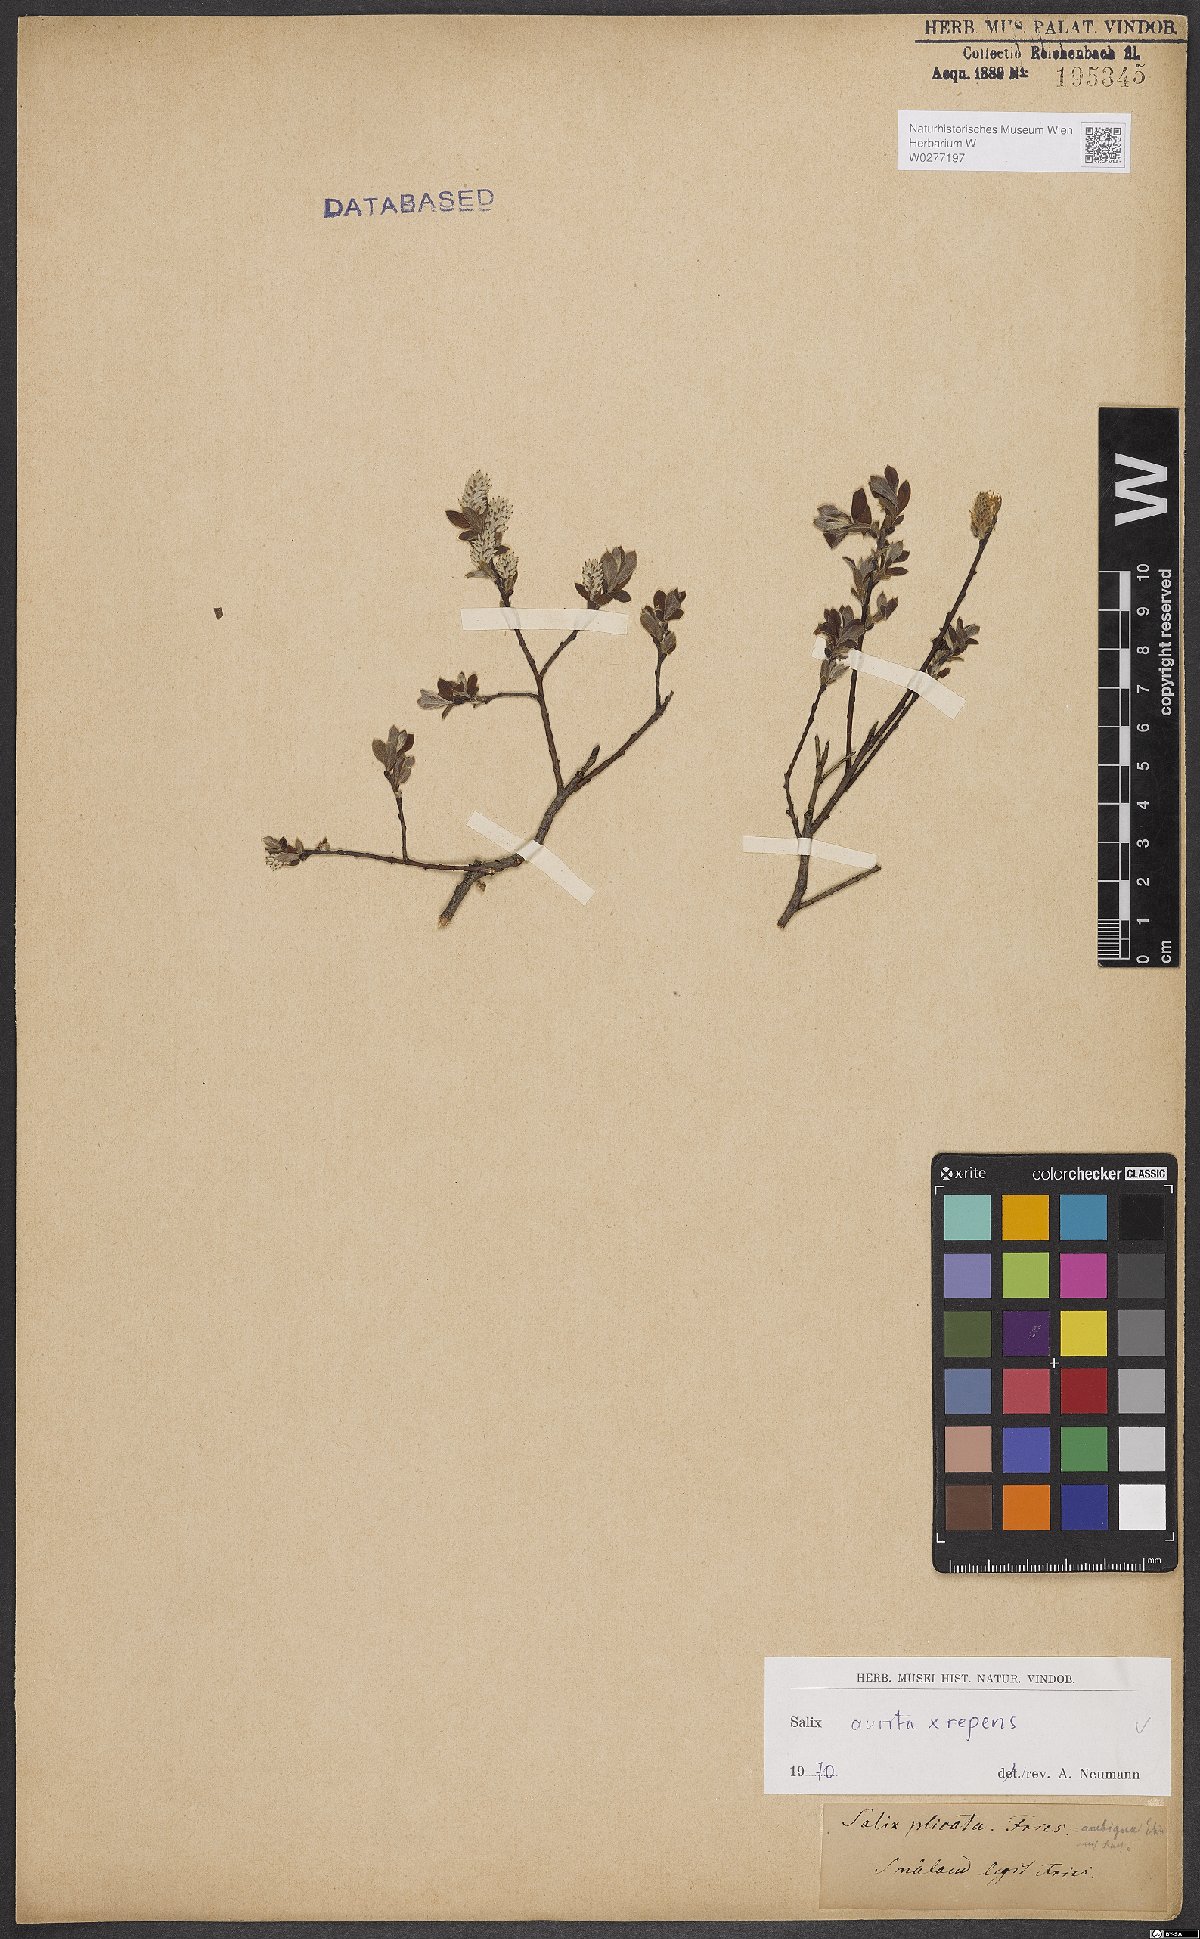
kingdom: Plantae
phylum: Tracheophyta
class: Magnoliopsida
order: Malpighiales
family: Salicaceae
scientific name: Salicaceae
